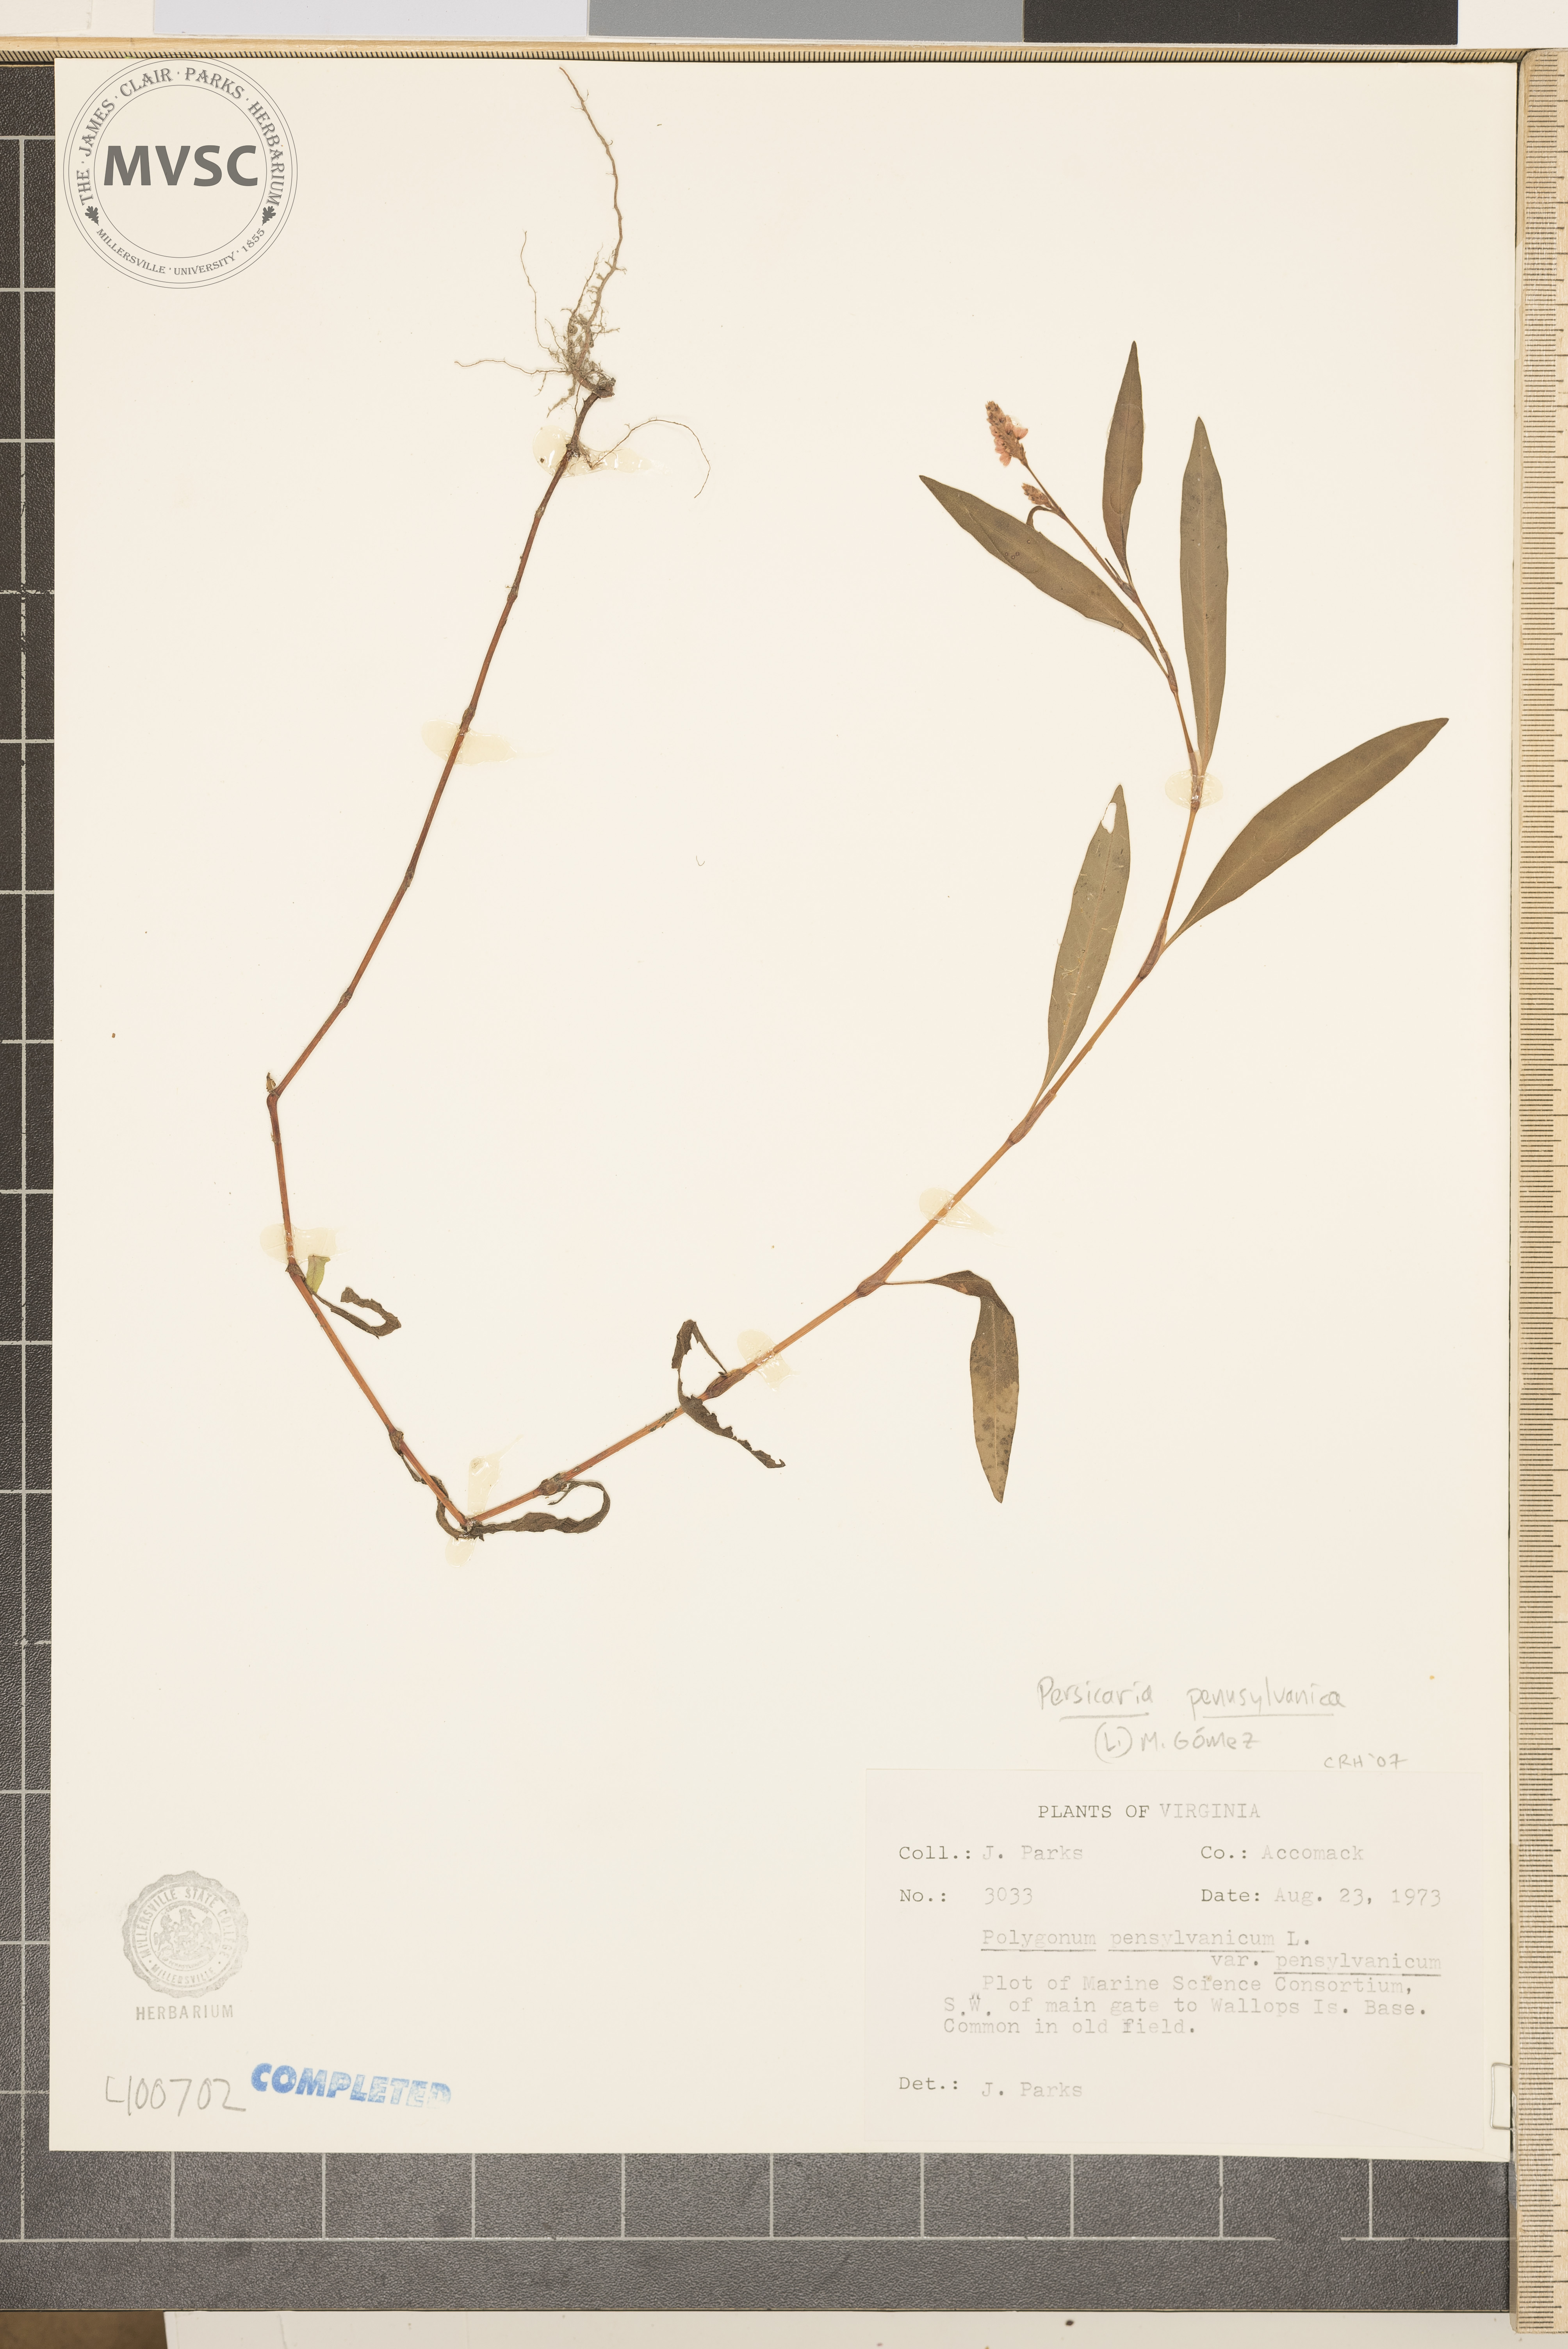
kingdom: Plantae
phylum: Tracheophyta
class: Magnoliopsida
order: Caryophyllales
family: Polygonaceae
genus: Persicaria
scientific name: Persicaria pensylvanica
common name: Pinkweed
